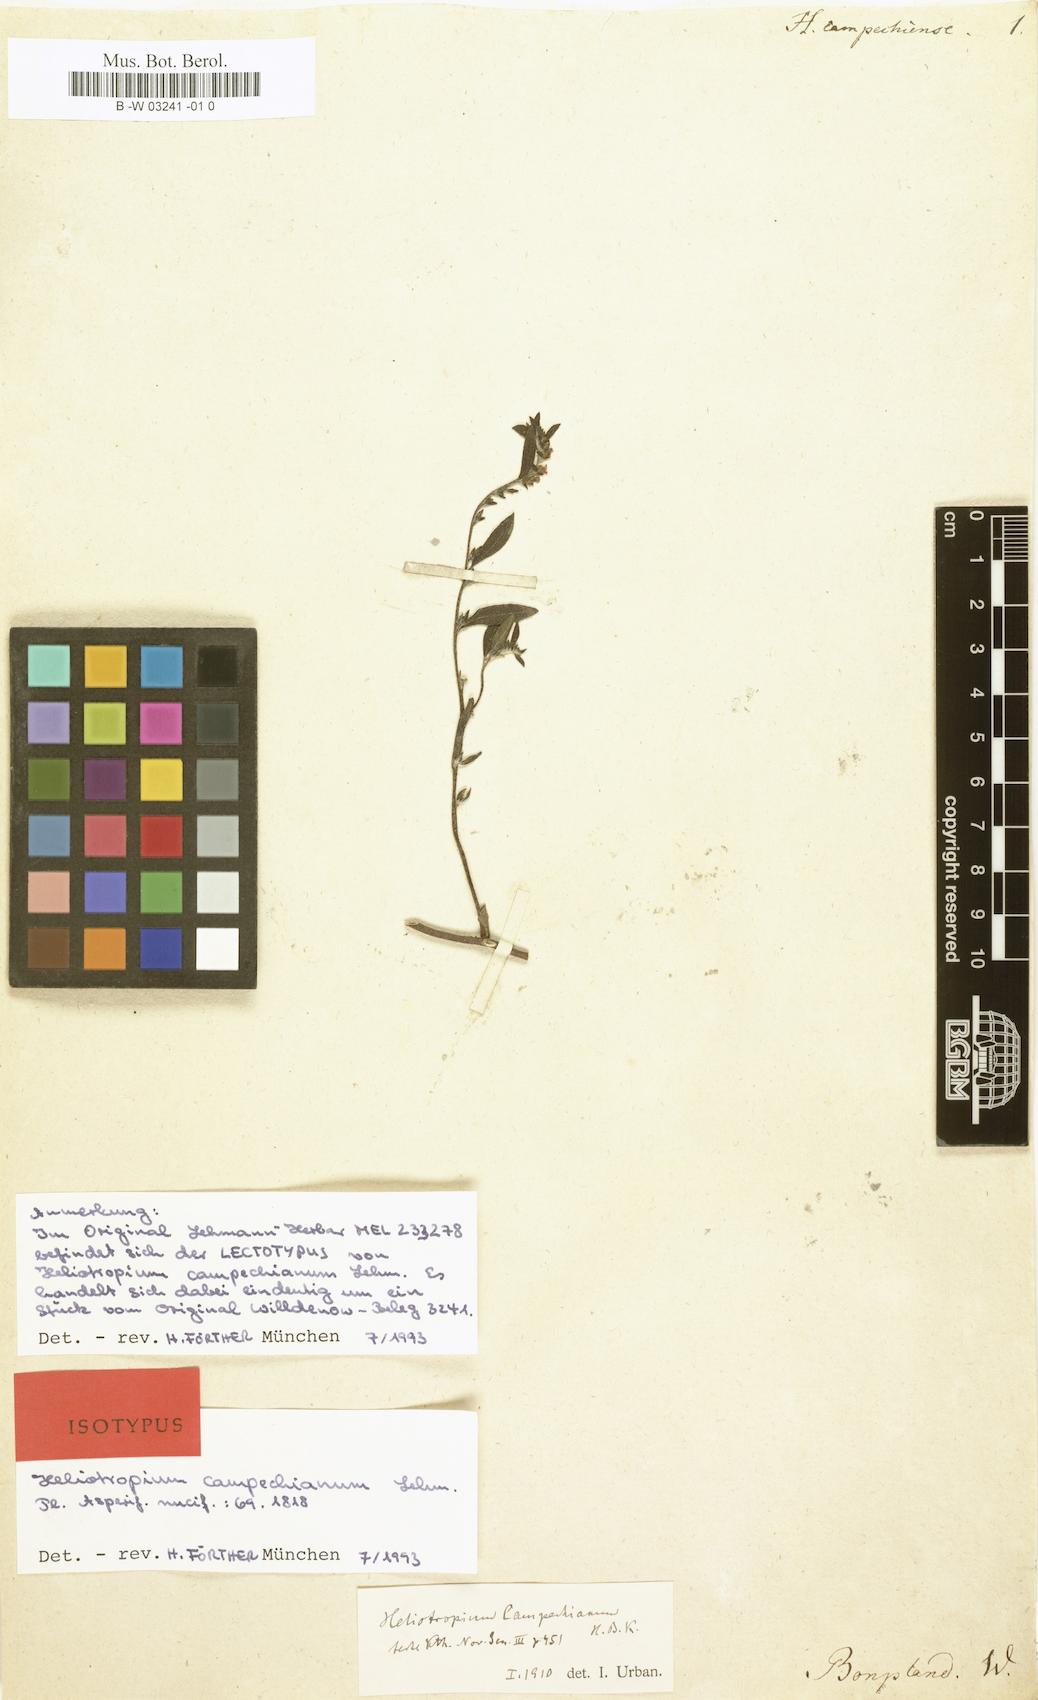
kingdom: Plantae
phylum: Tracheophyta
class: Magnoliopsida
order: Boraginales
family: Heliotropiaceae
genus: Euploca
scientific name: Euploca fruticosa
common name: Key west heliotrope
